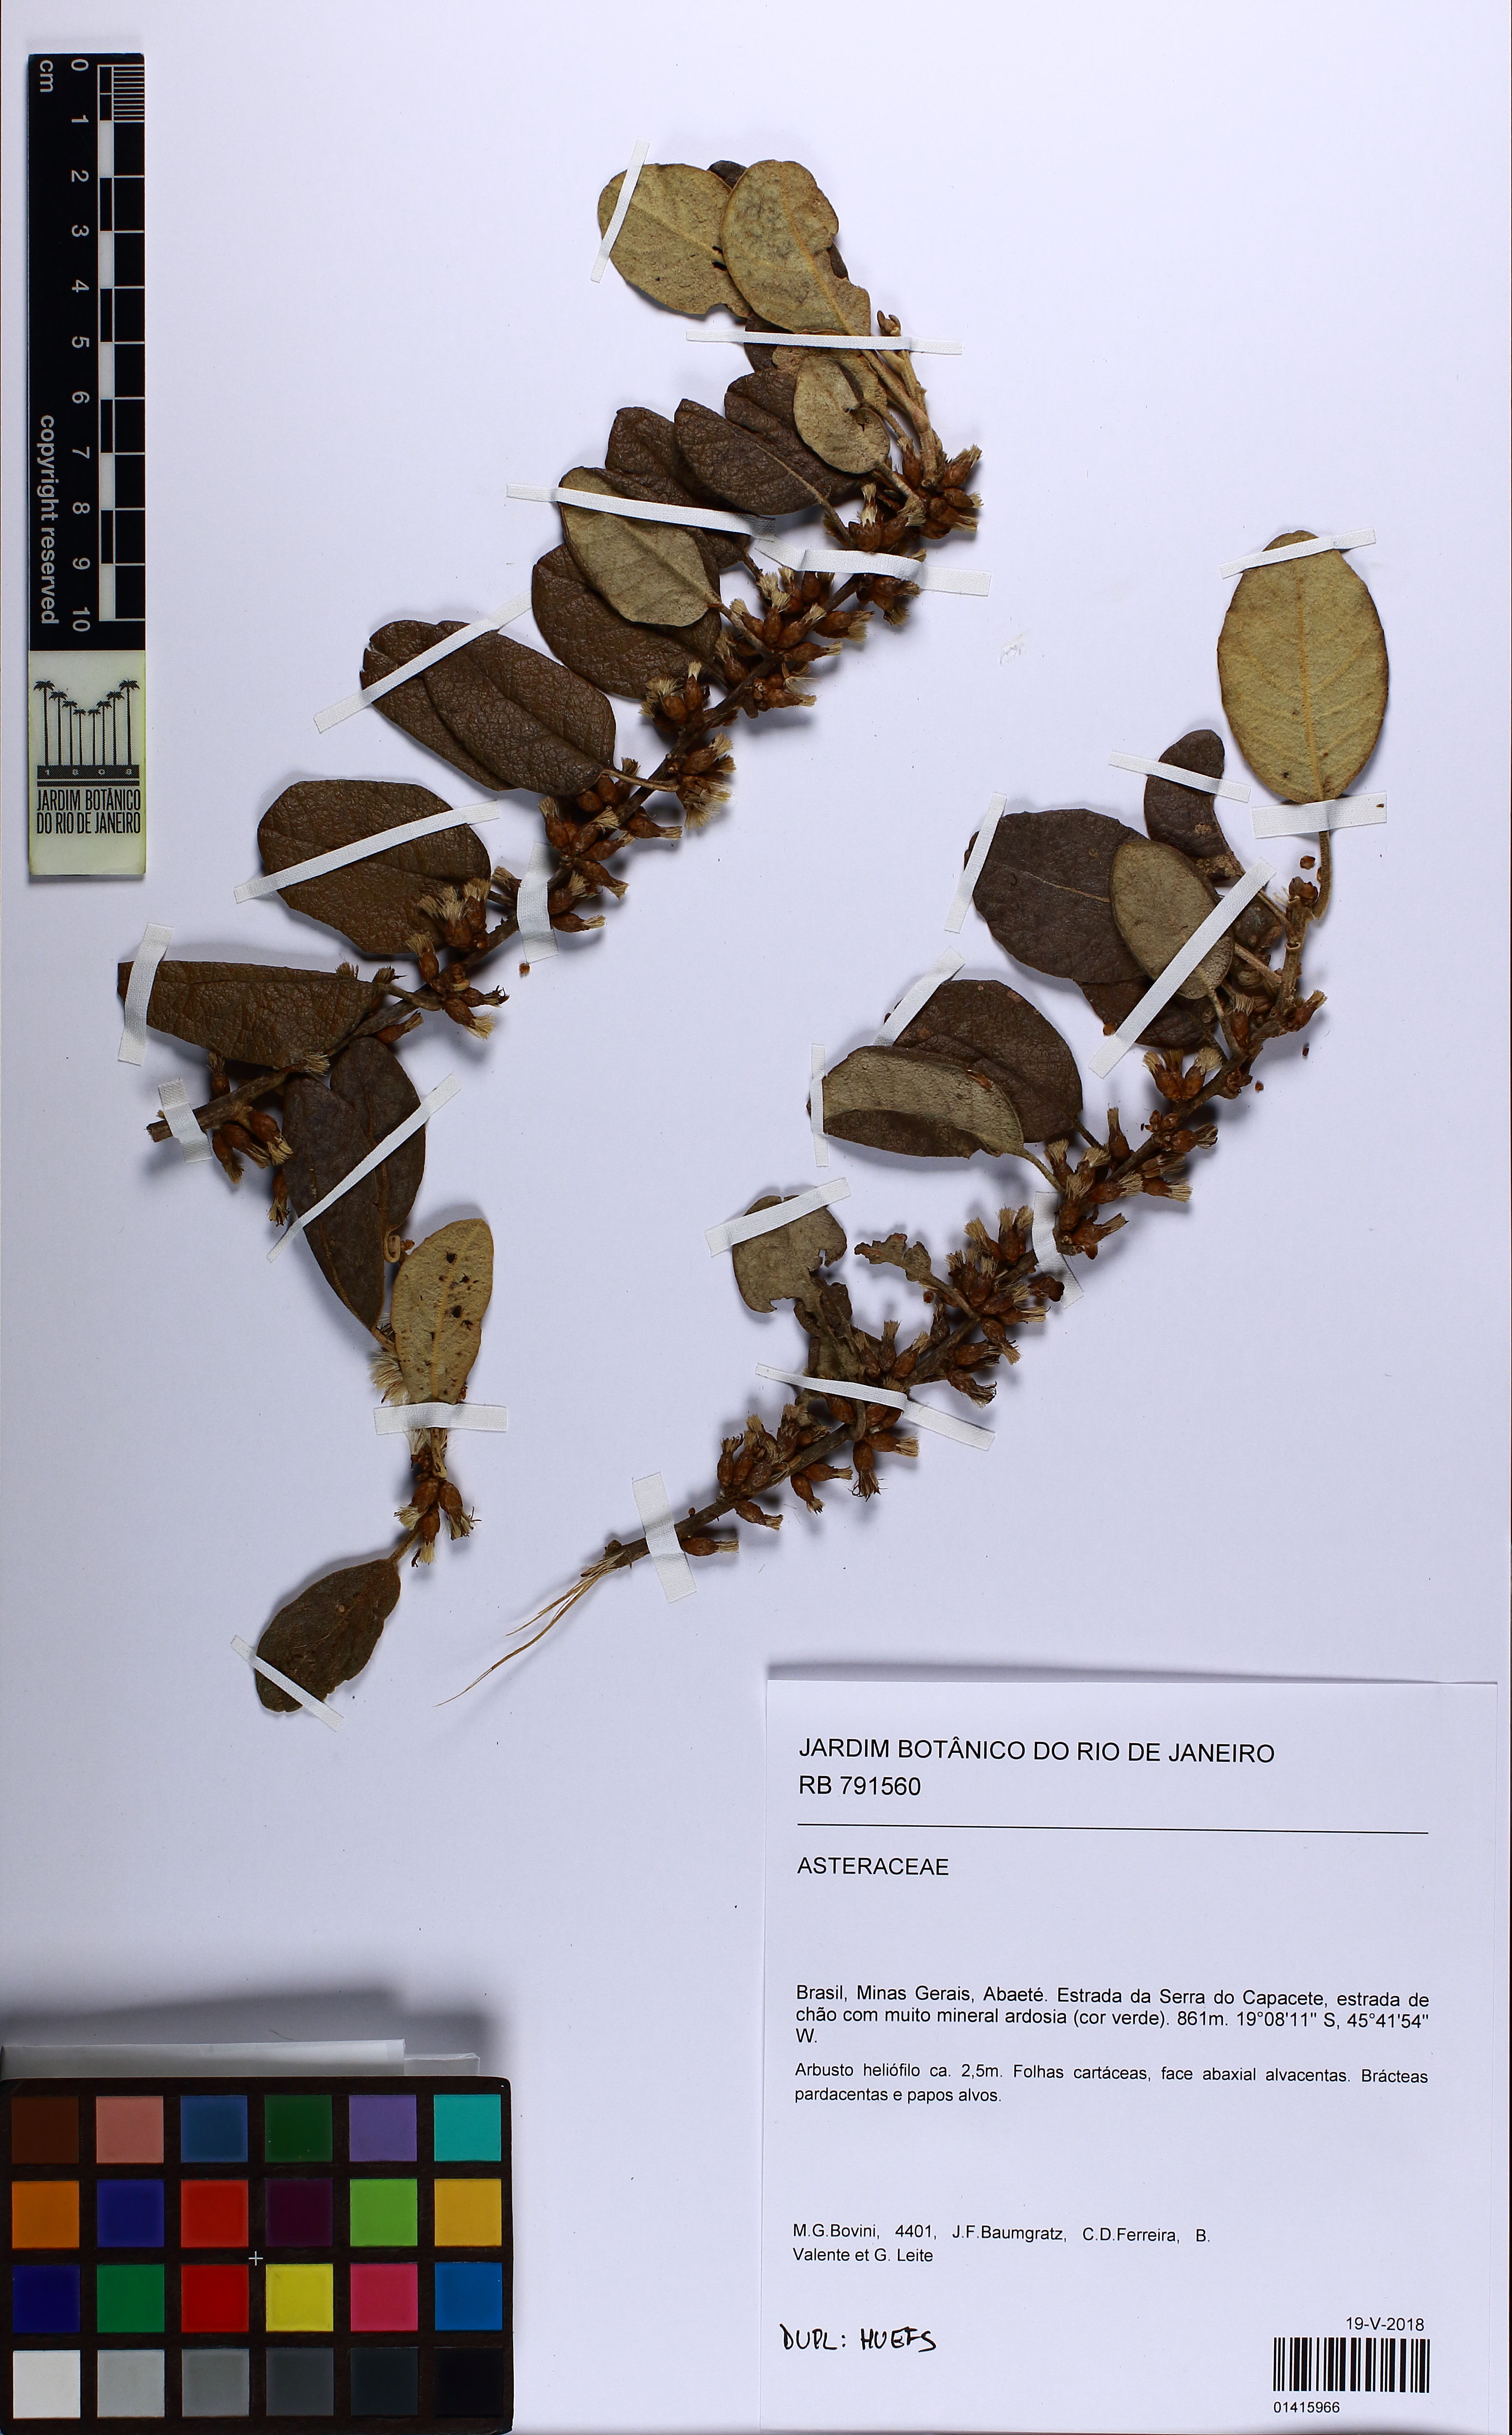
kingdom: Plantae
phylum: Tracheophyta
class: Magnoliopsida
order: Asterales
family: Asteraceae
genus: Piptocarpha
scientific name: Piptocarpha rotundifolia
